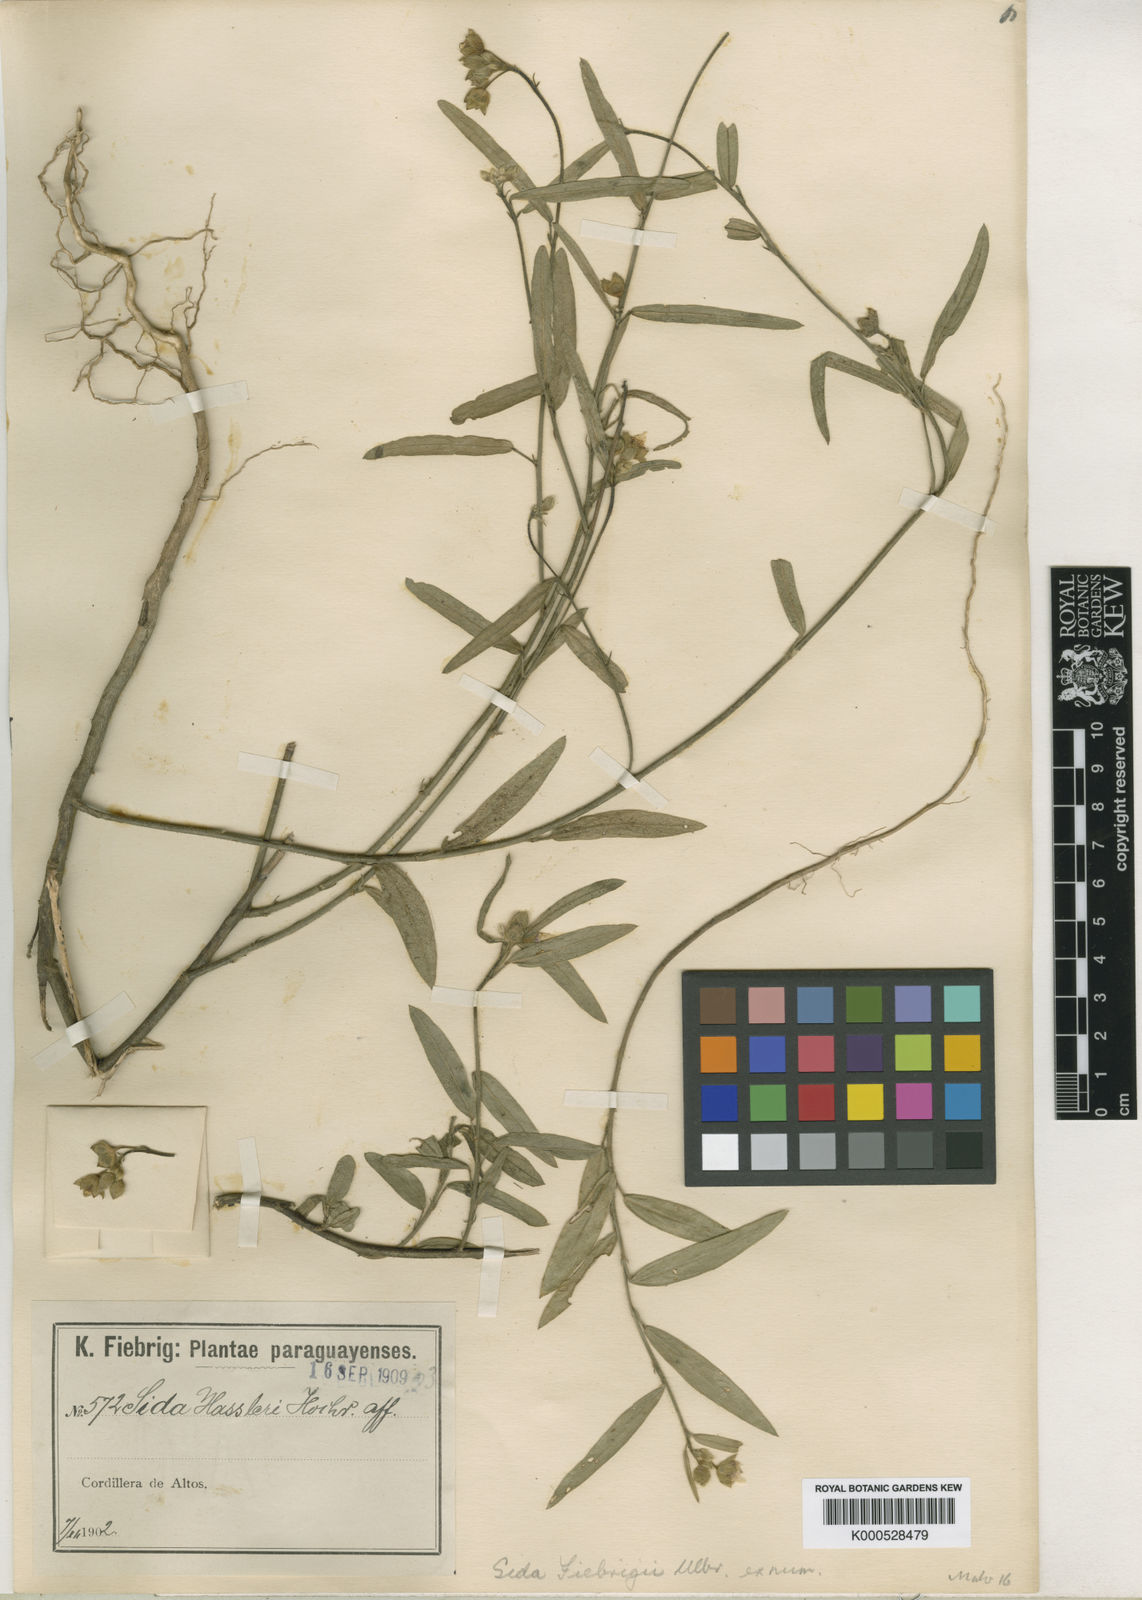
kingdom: Plantae
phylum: Tracheophyta
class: Magnoliopsida
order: Malvales
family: Malvaceae
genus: Sida
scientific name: Sida hassleri
